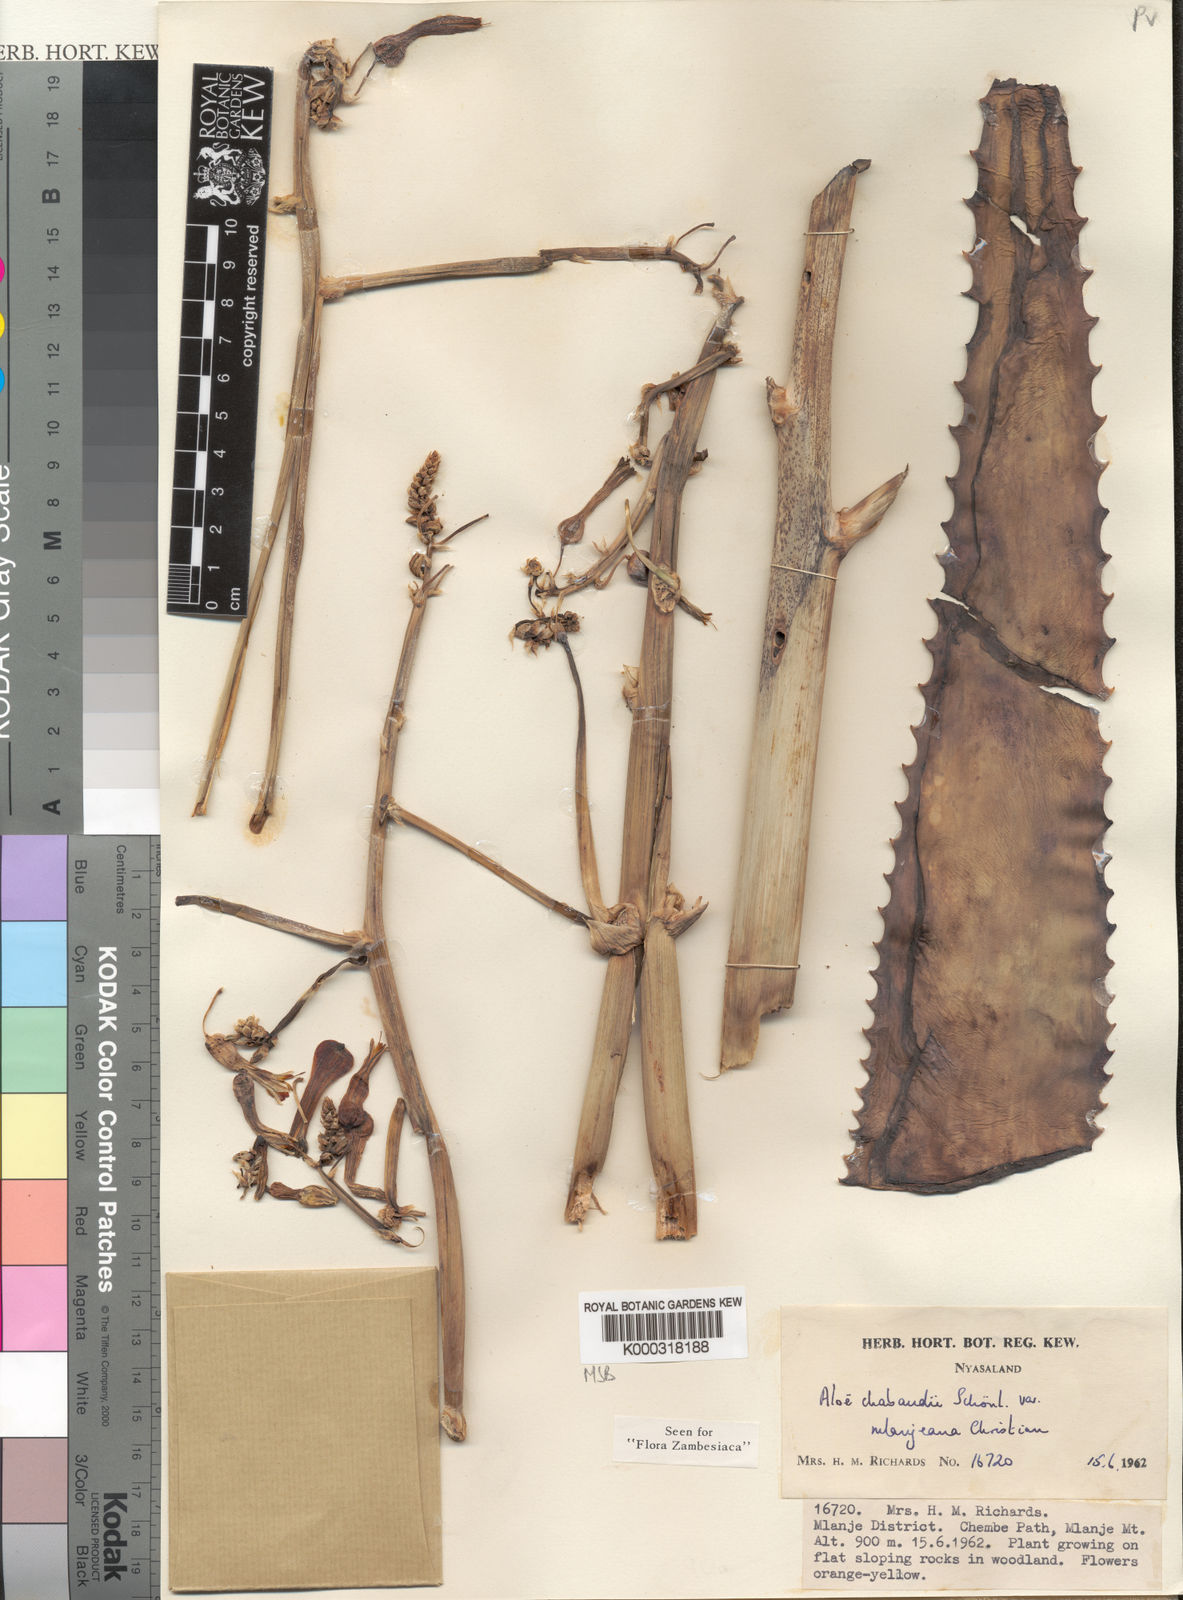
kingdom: Plantae
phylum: Tracheophyta
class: Liliopsida
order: Asparagales
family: Asphodelaceae
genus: Aloe
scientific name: Aloe chabaudii
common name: Chabaud's aloe
